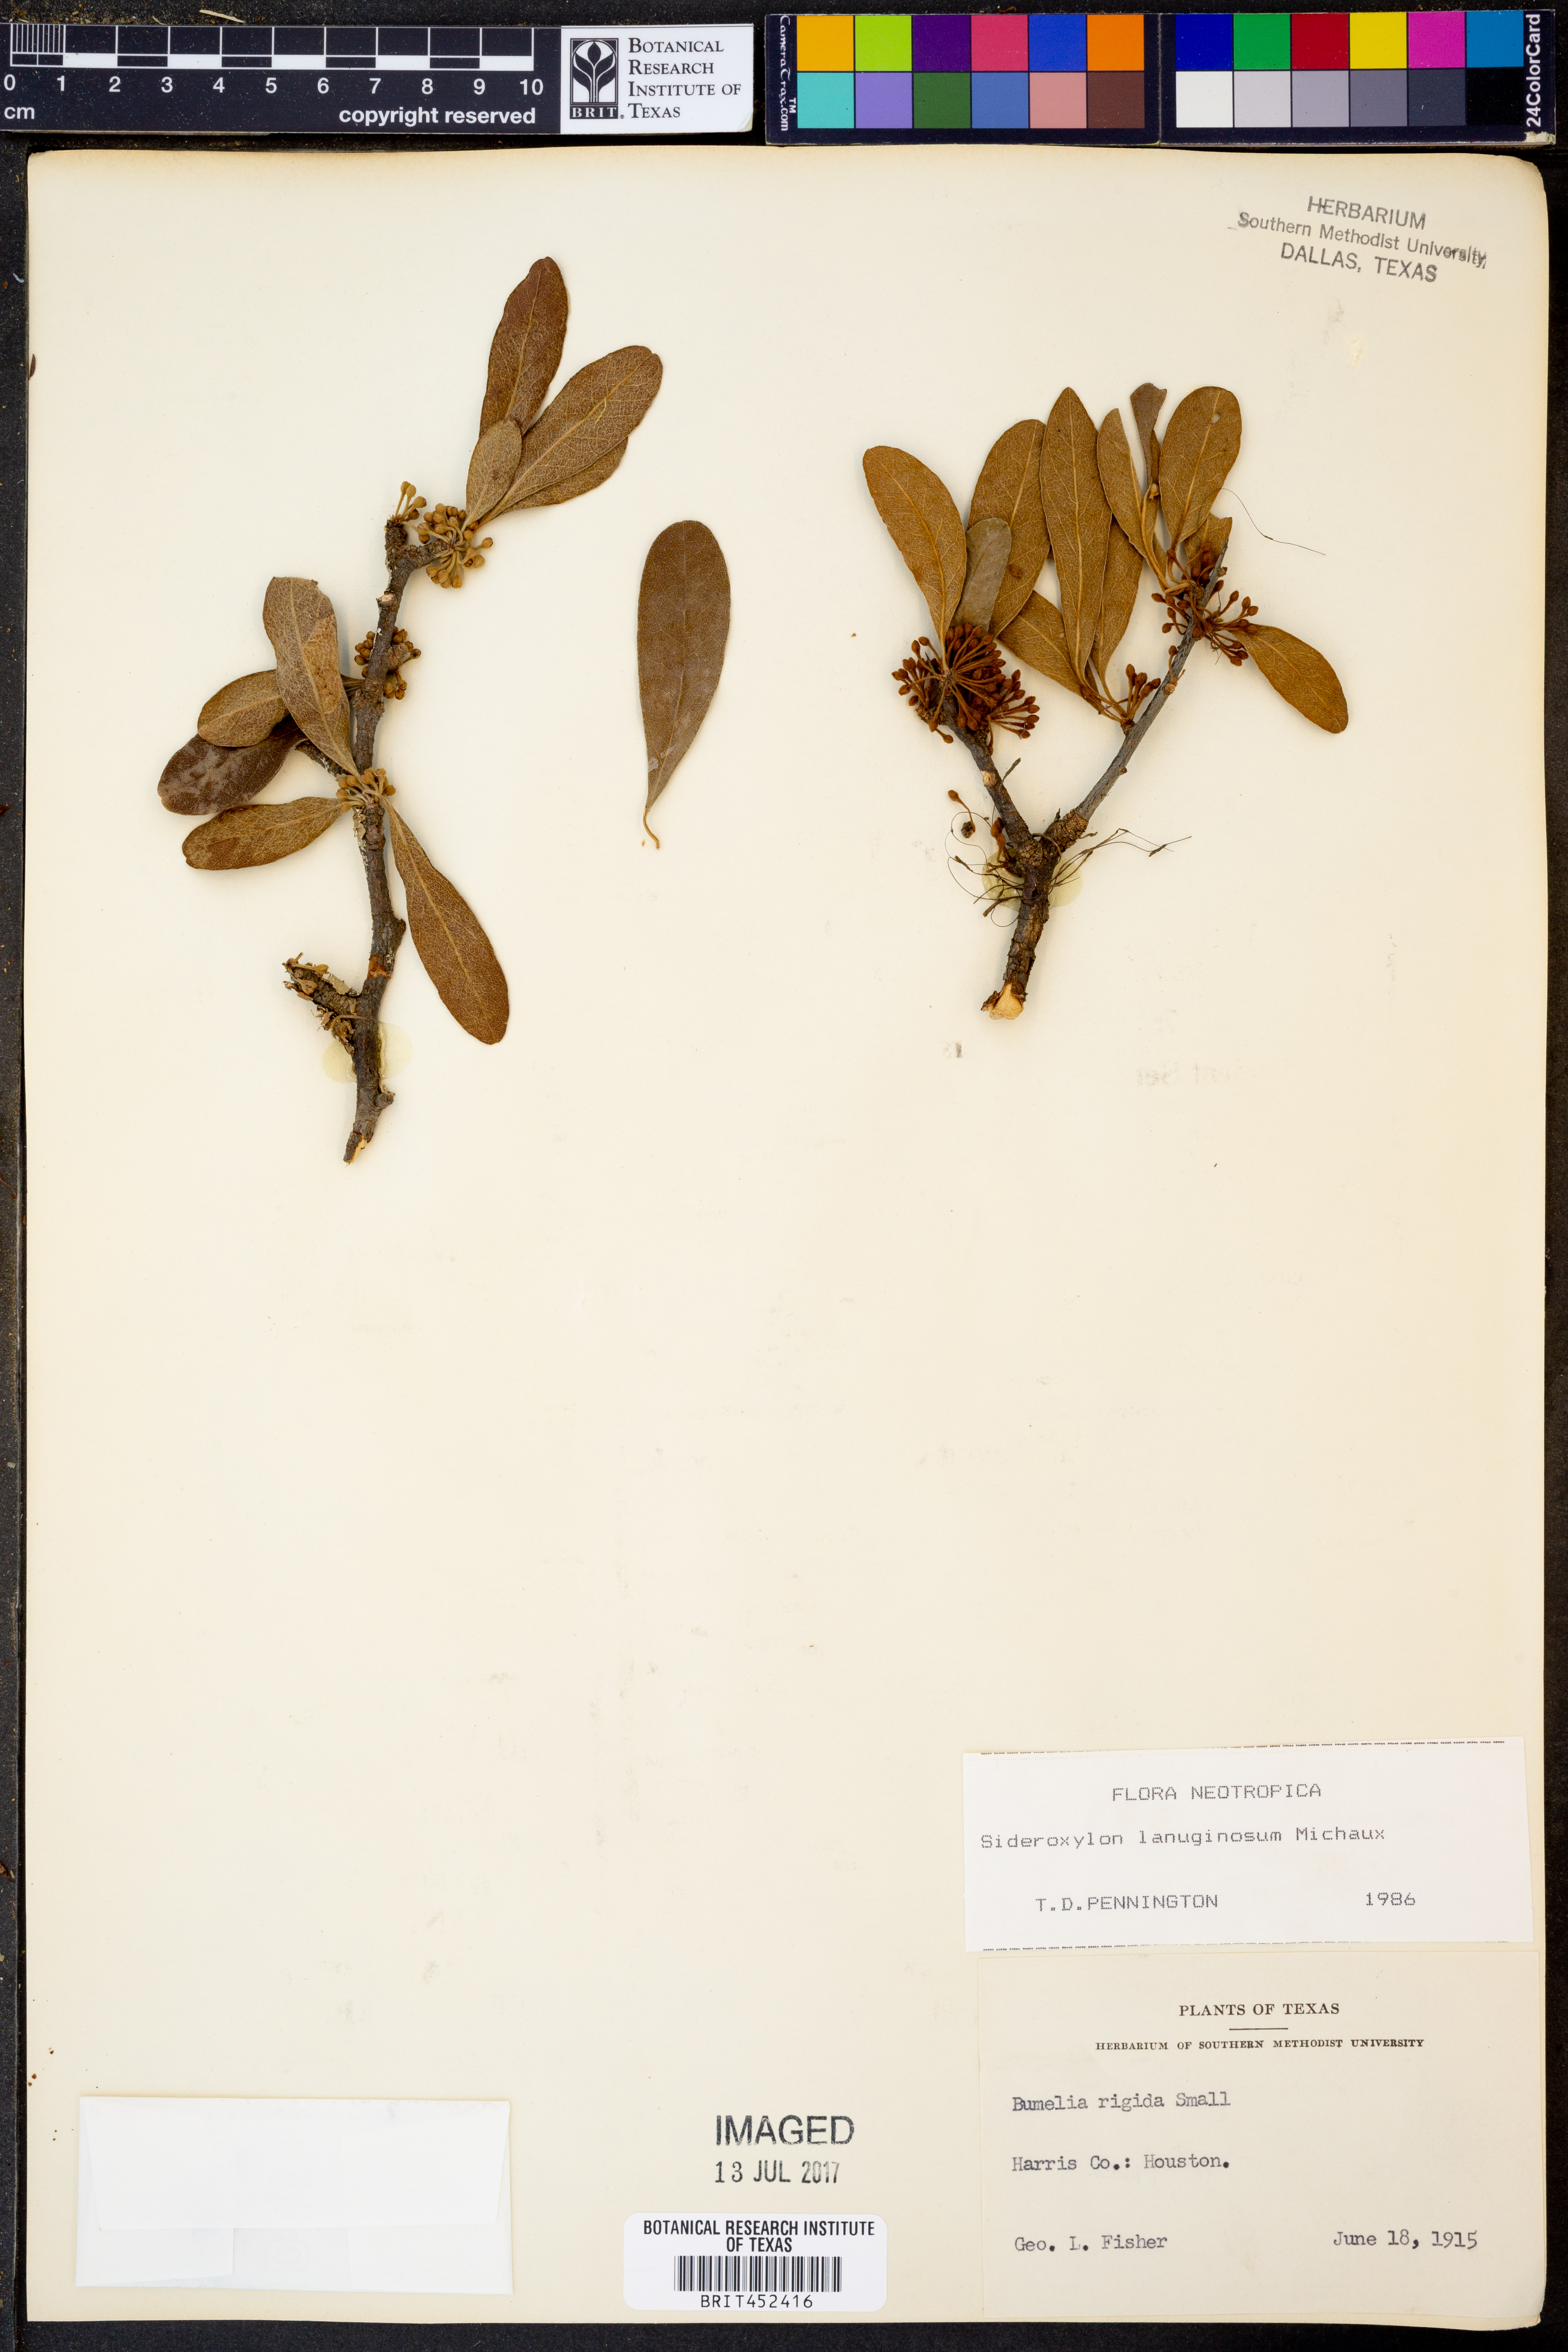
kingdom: Plantae
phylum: Tracheophyta
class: Magnoliopsida
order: Ericales
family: Sapotaceae
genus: Sideroxylon
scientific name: Sideroxylon lanuginosum
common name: Chittamwood
